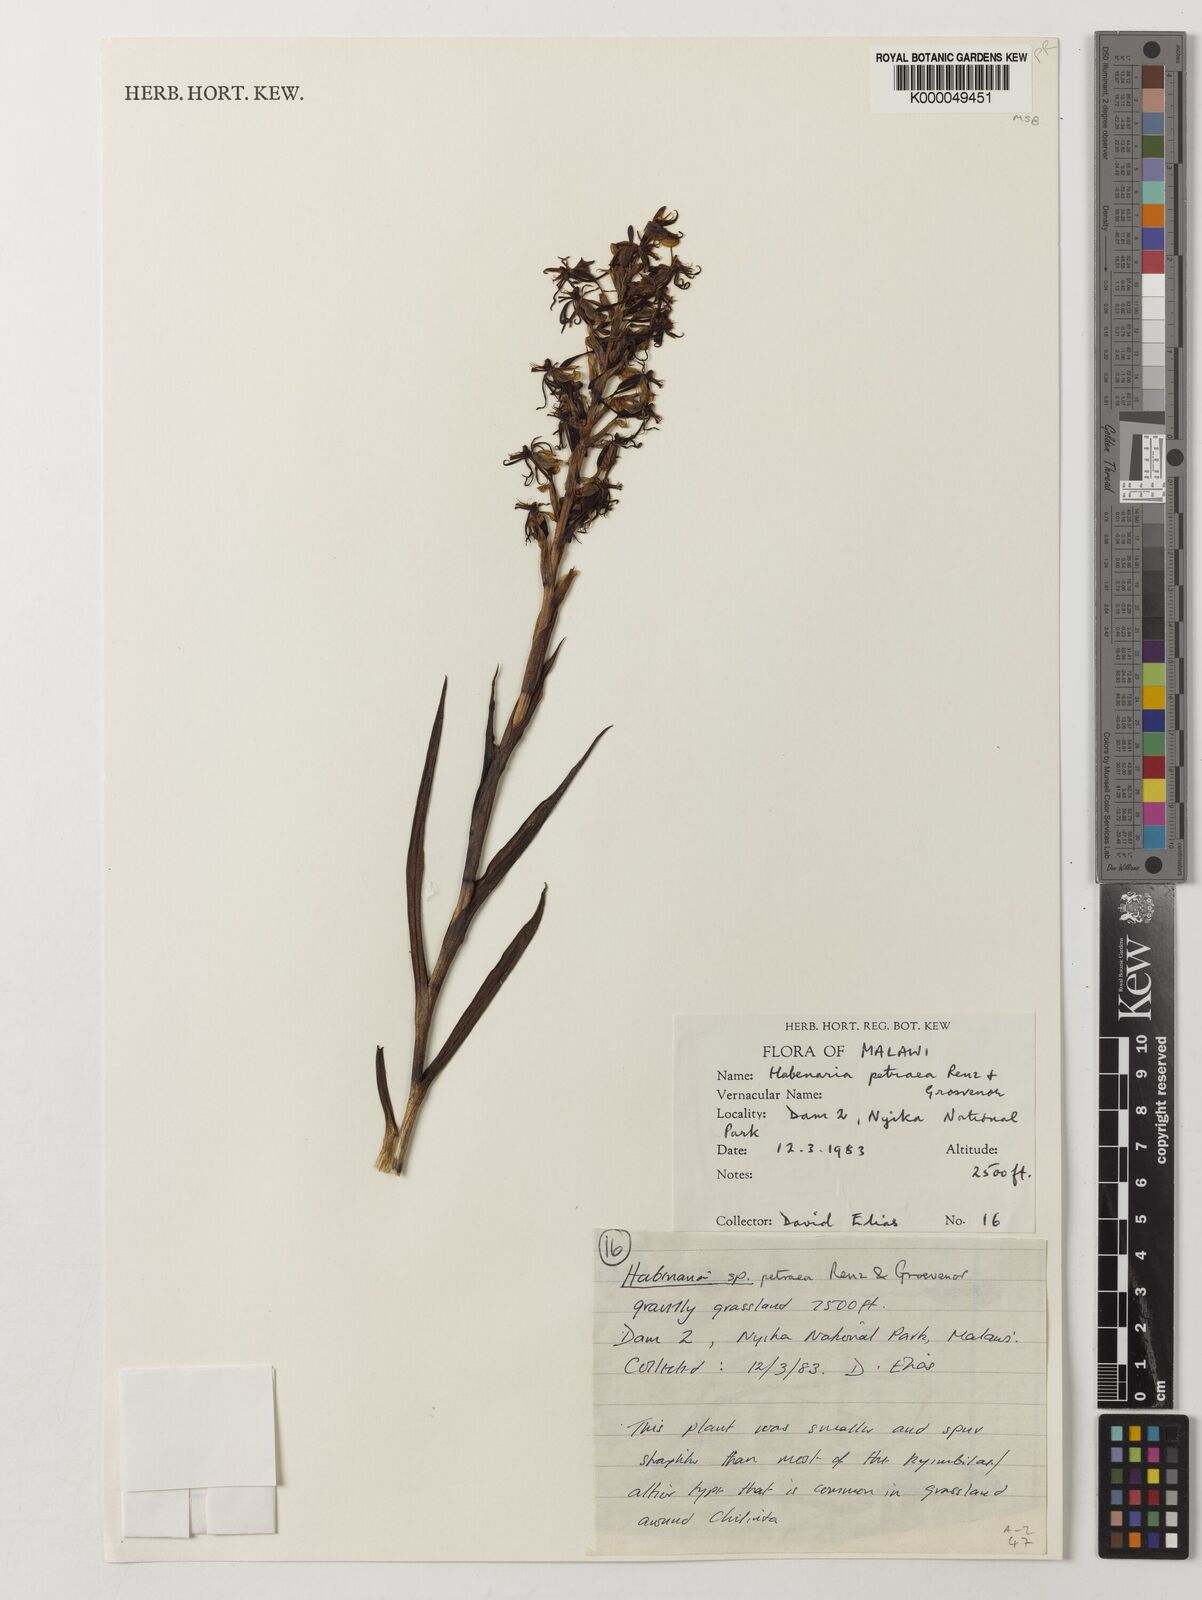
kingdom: Plantae
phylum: Tracheophyta
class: Liliopsida
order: Asparagales
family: Orchidaceae
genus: Habenaria
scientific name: Habenaria petraea
